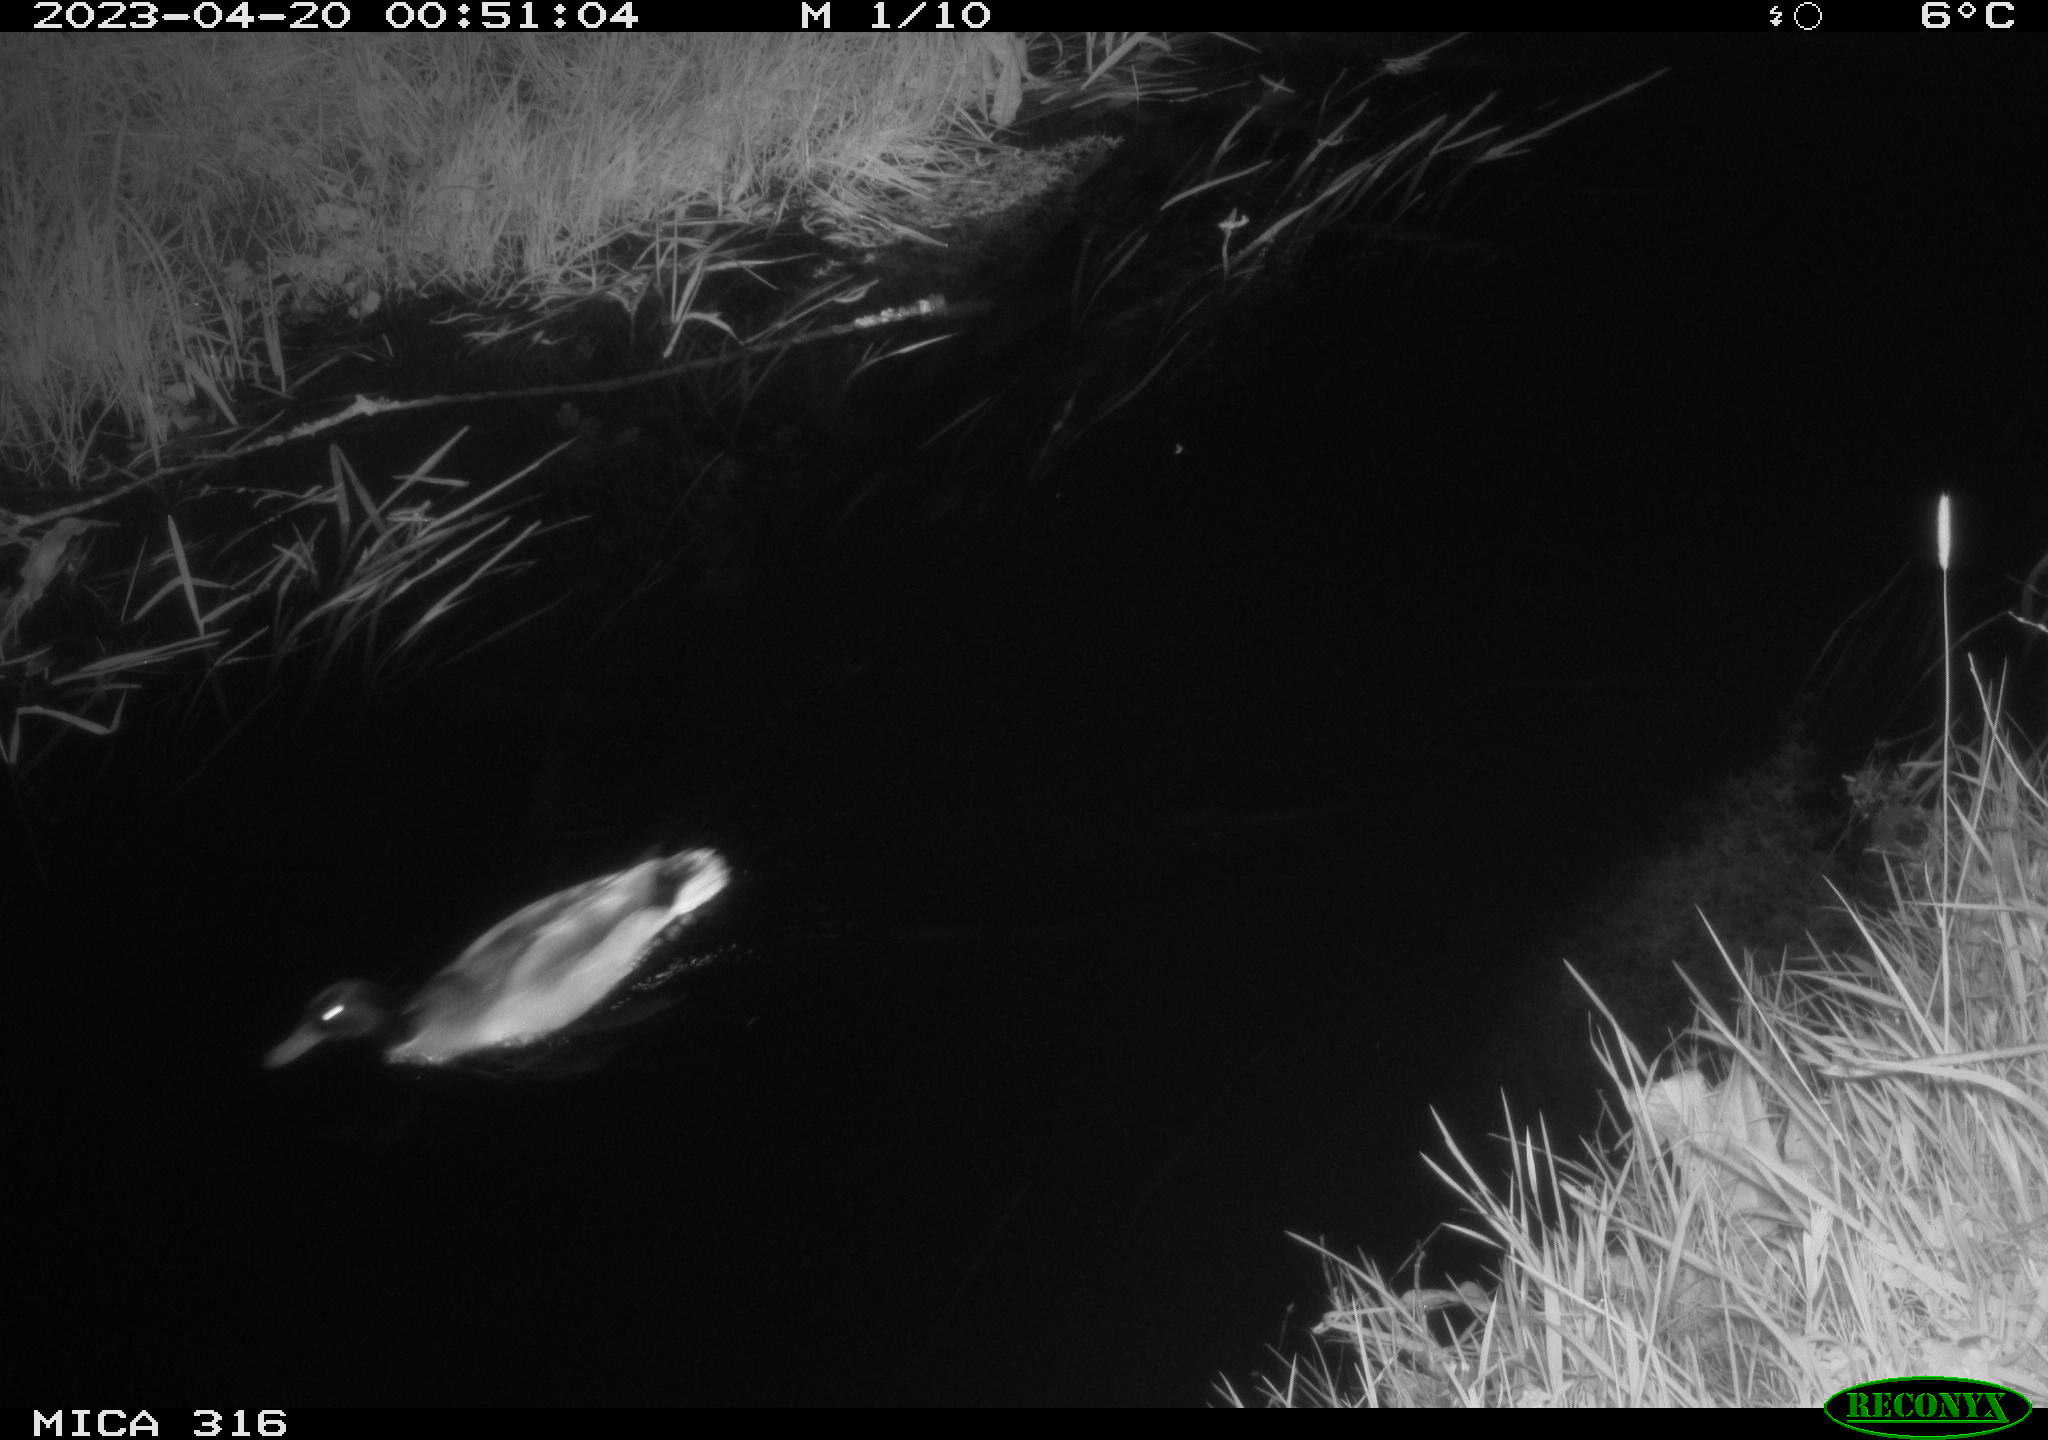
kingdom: Animalia
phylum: Chordata
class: Aves
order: Anseriformes
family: Anatidae
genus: Anas
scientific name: Anas
